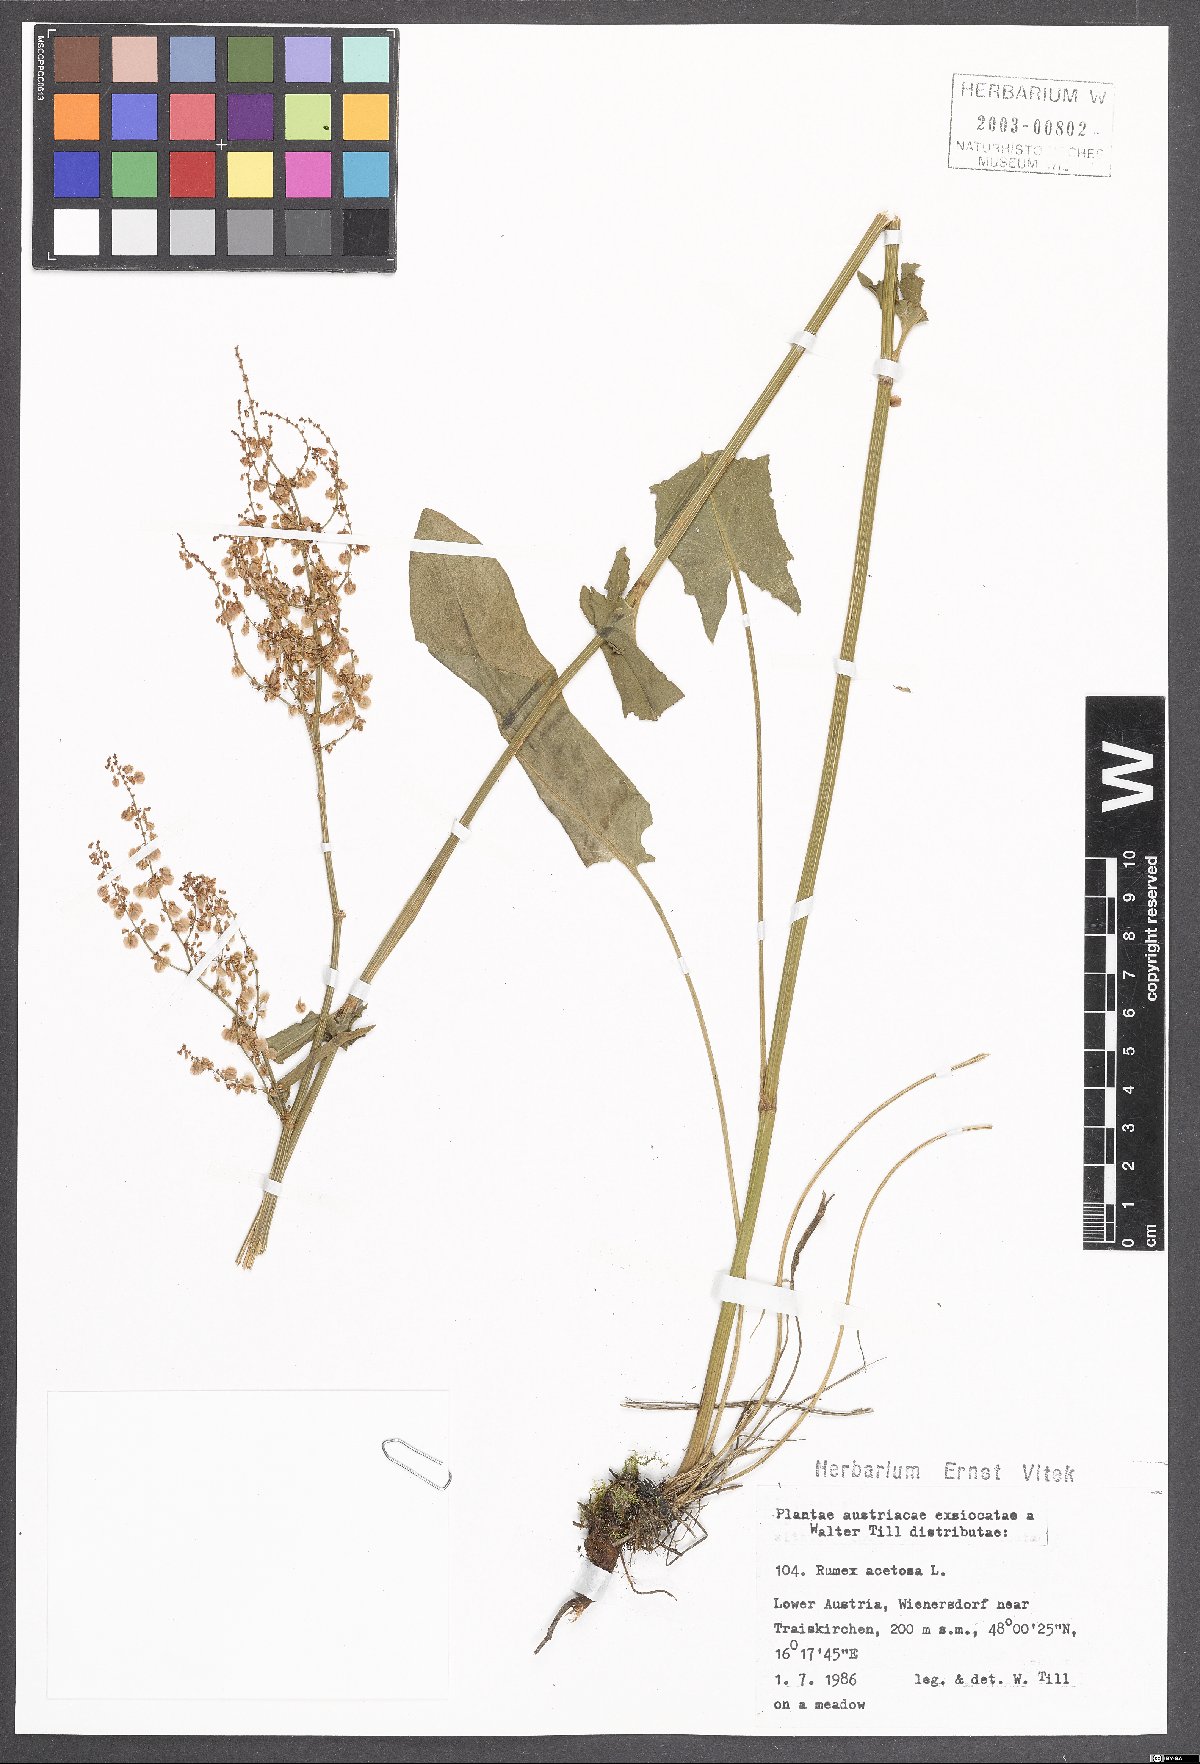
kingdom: Plantae
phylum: Tracheophyta
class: Magnoliopsida
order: Caryophyllales
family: Polygonaceae
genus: Rumex
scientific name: Rumex acetosa
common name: Garden sorrel
